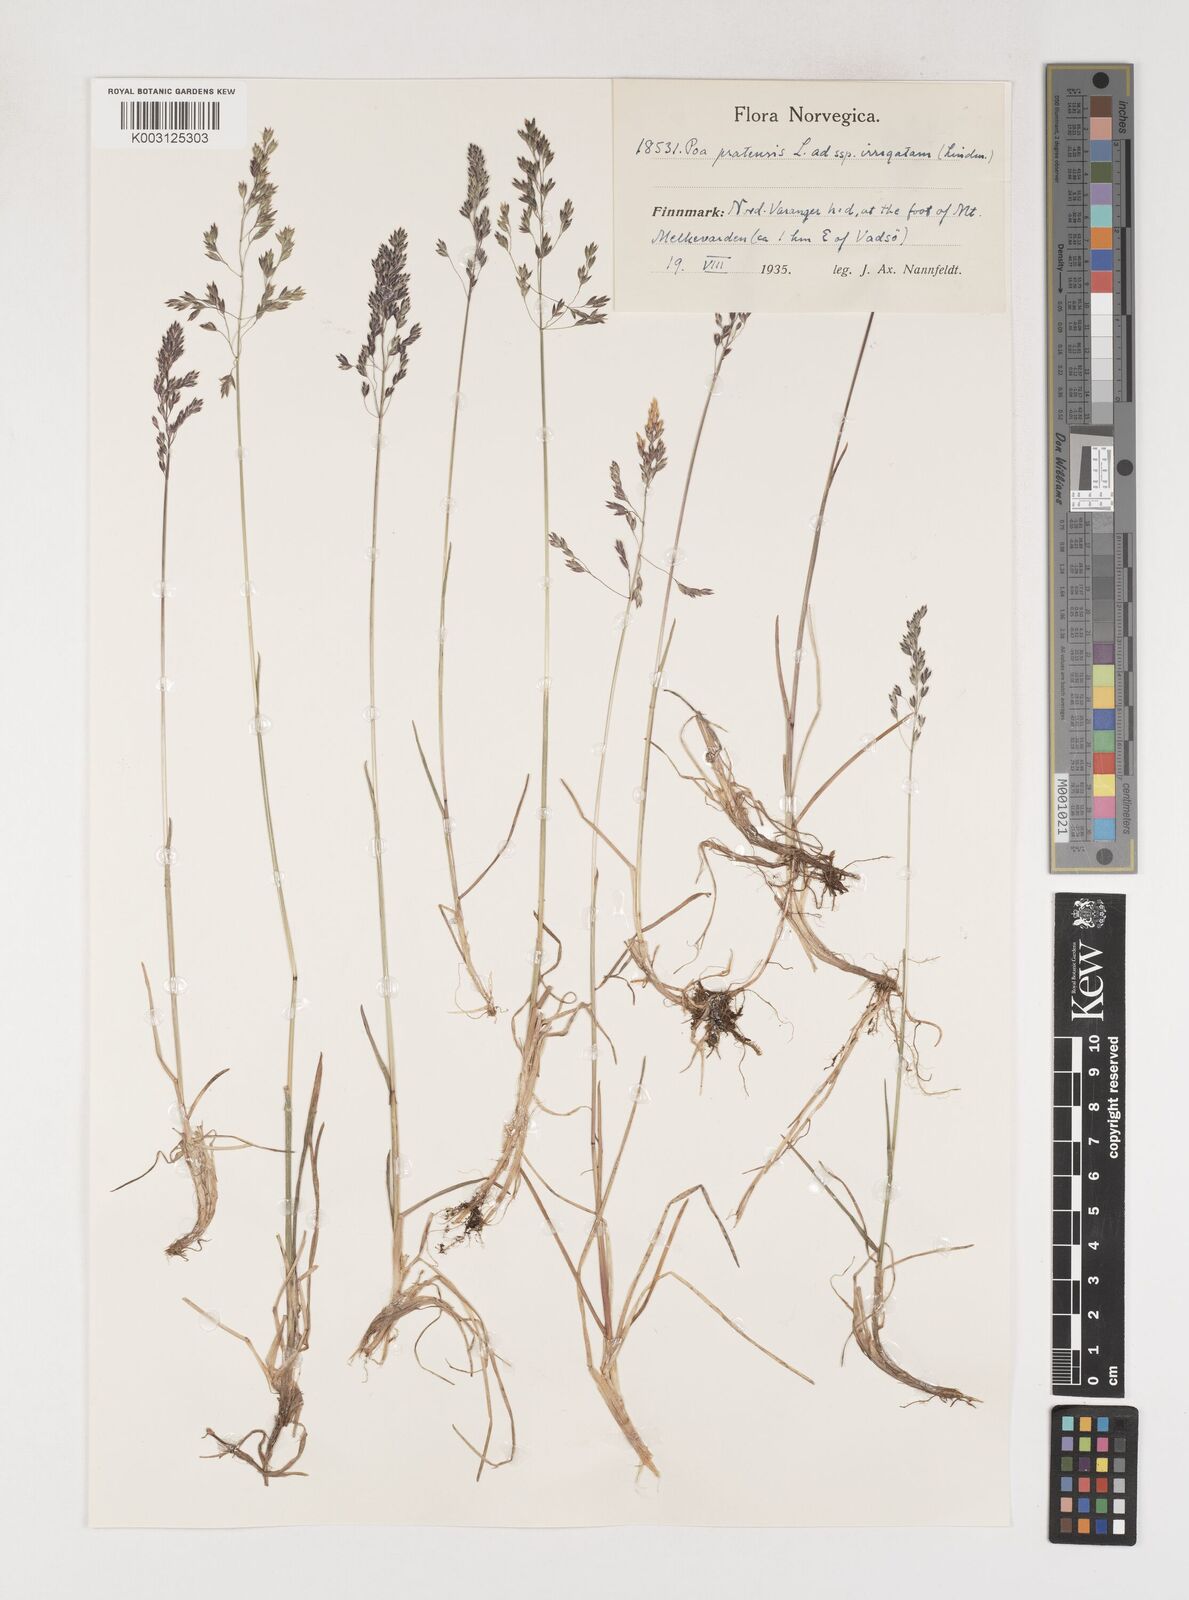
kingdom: Plantae
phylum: Tracheophyta
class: Liliopsida
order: Poales
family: Poaceae
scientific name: Poaceae
